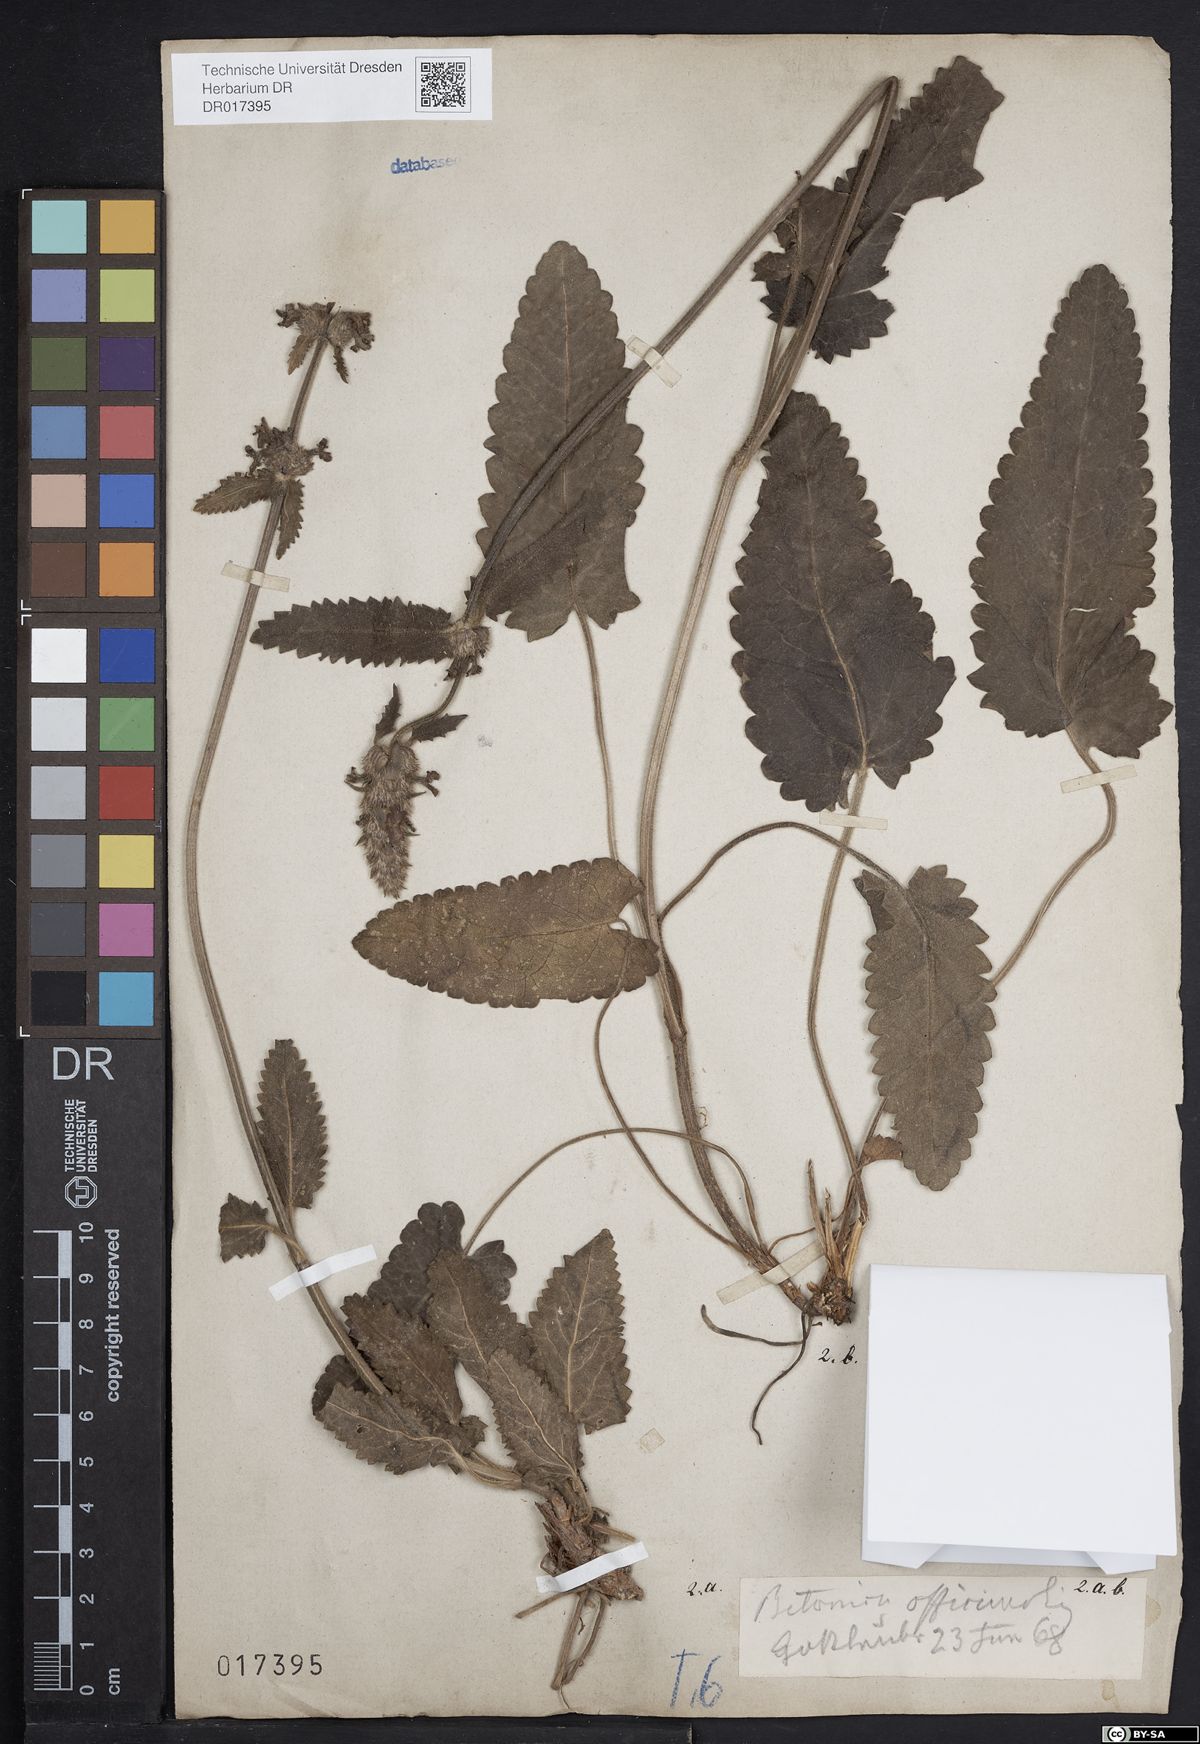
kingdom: Plantae
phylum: Tracheophyta
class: Magnoliopsida
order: Lamiales
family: Lamiaceae
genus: Betonica
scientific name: Betonica officinalis
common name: Bishop's-wort
